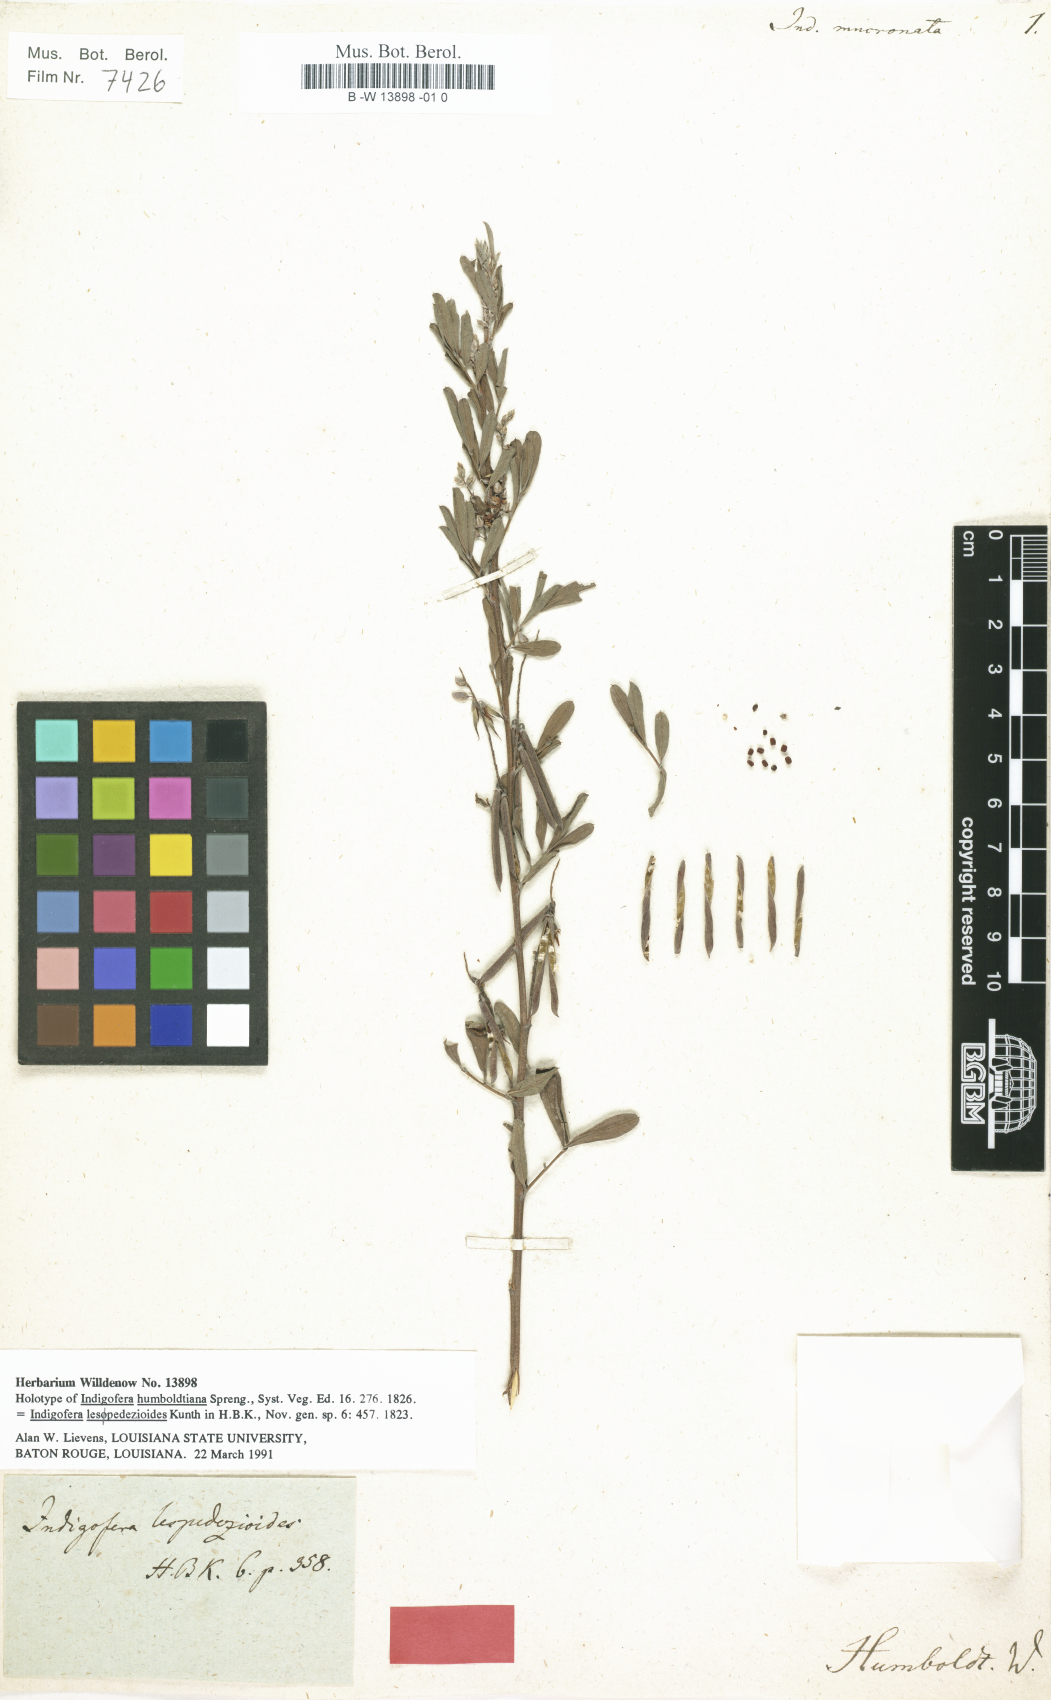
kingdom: Plantae
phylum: Tracheophyta
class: Magnoliopsida
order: Fabales
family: Fabaceae
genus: Indigofera
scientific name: Indigofera
